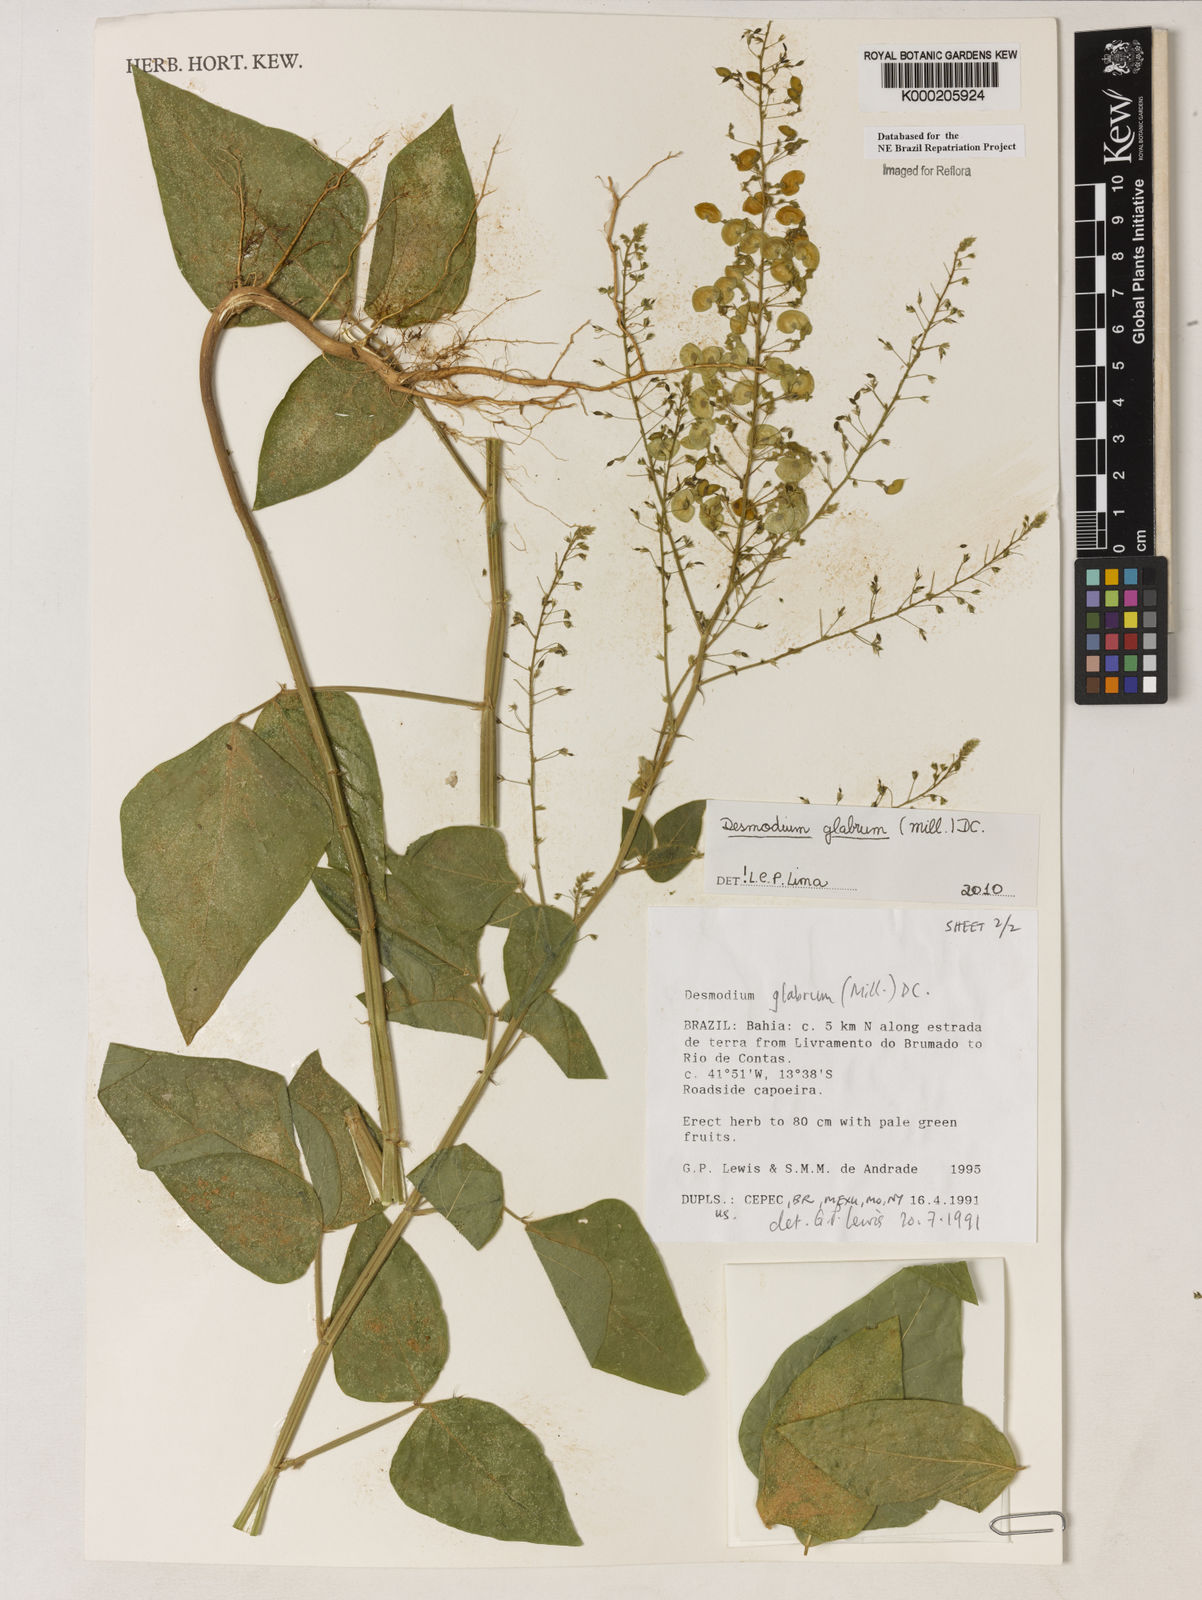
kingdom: Plantae
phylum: Tracheophyta
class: Magnoliopsida
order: Fabales
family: Fabaceae
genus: Desmodium
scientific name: Desmodium glabrum
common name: Zarzabacoa dulce
